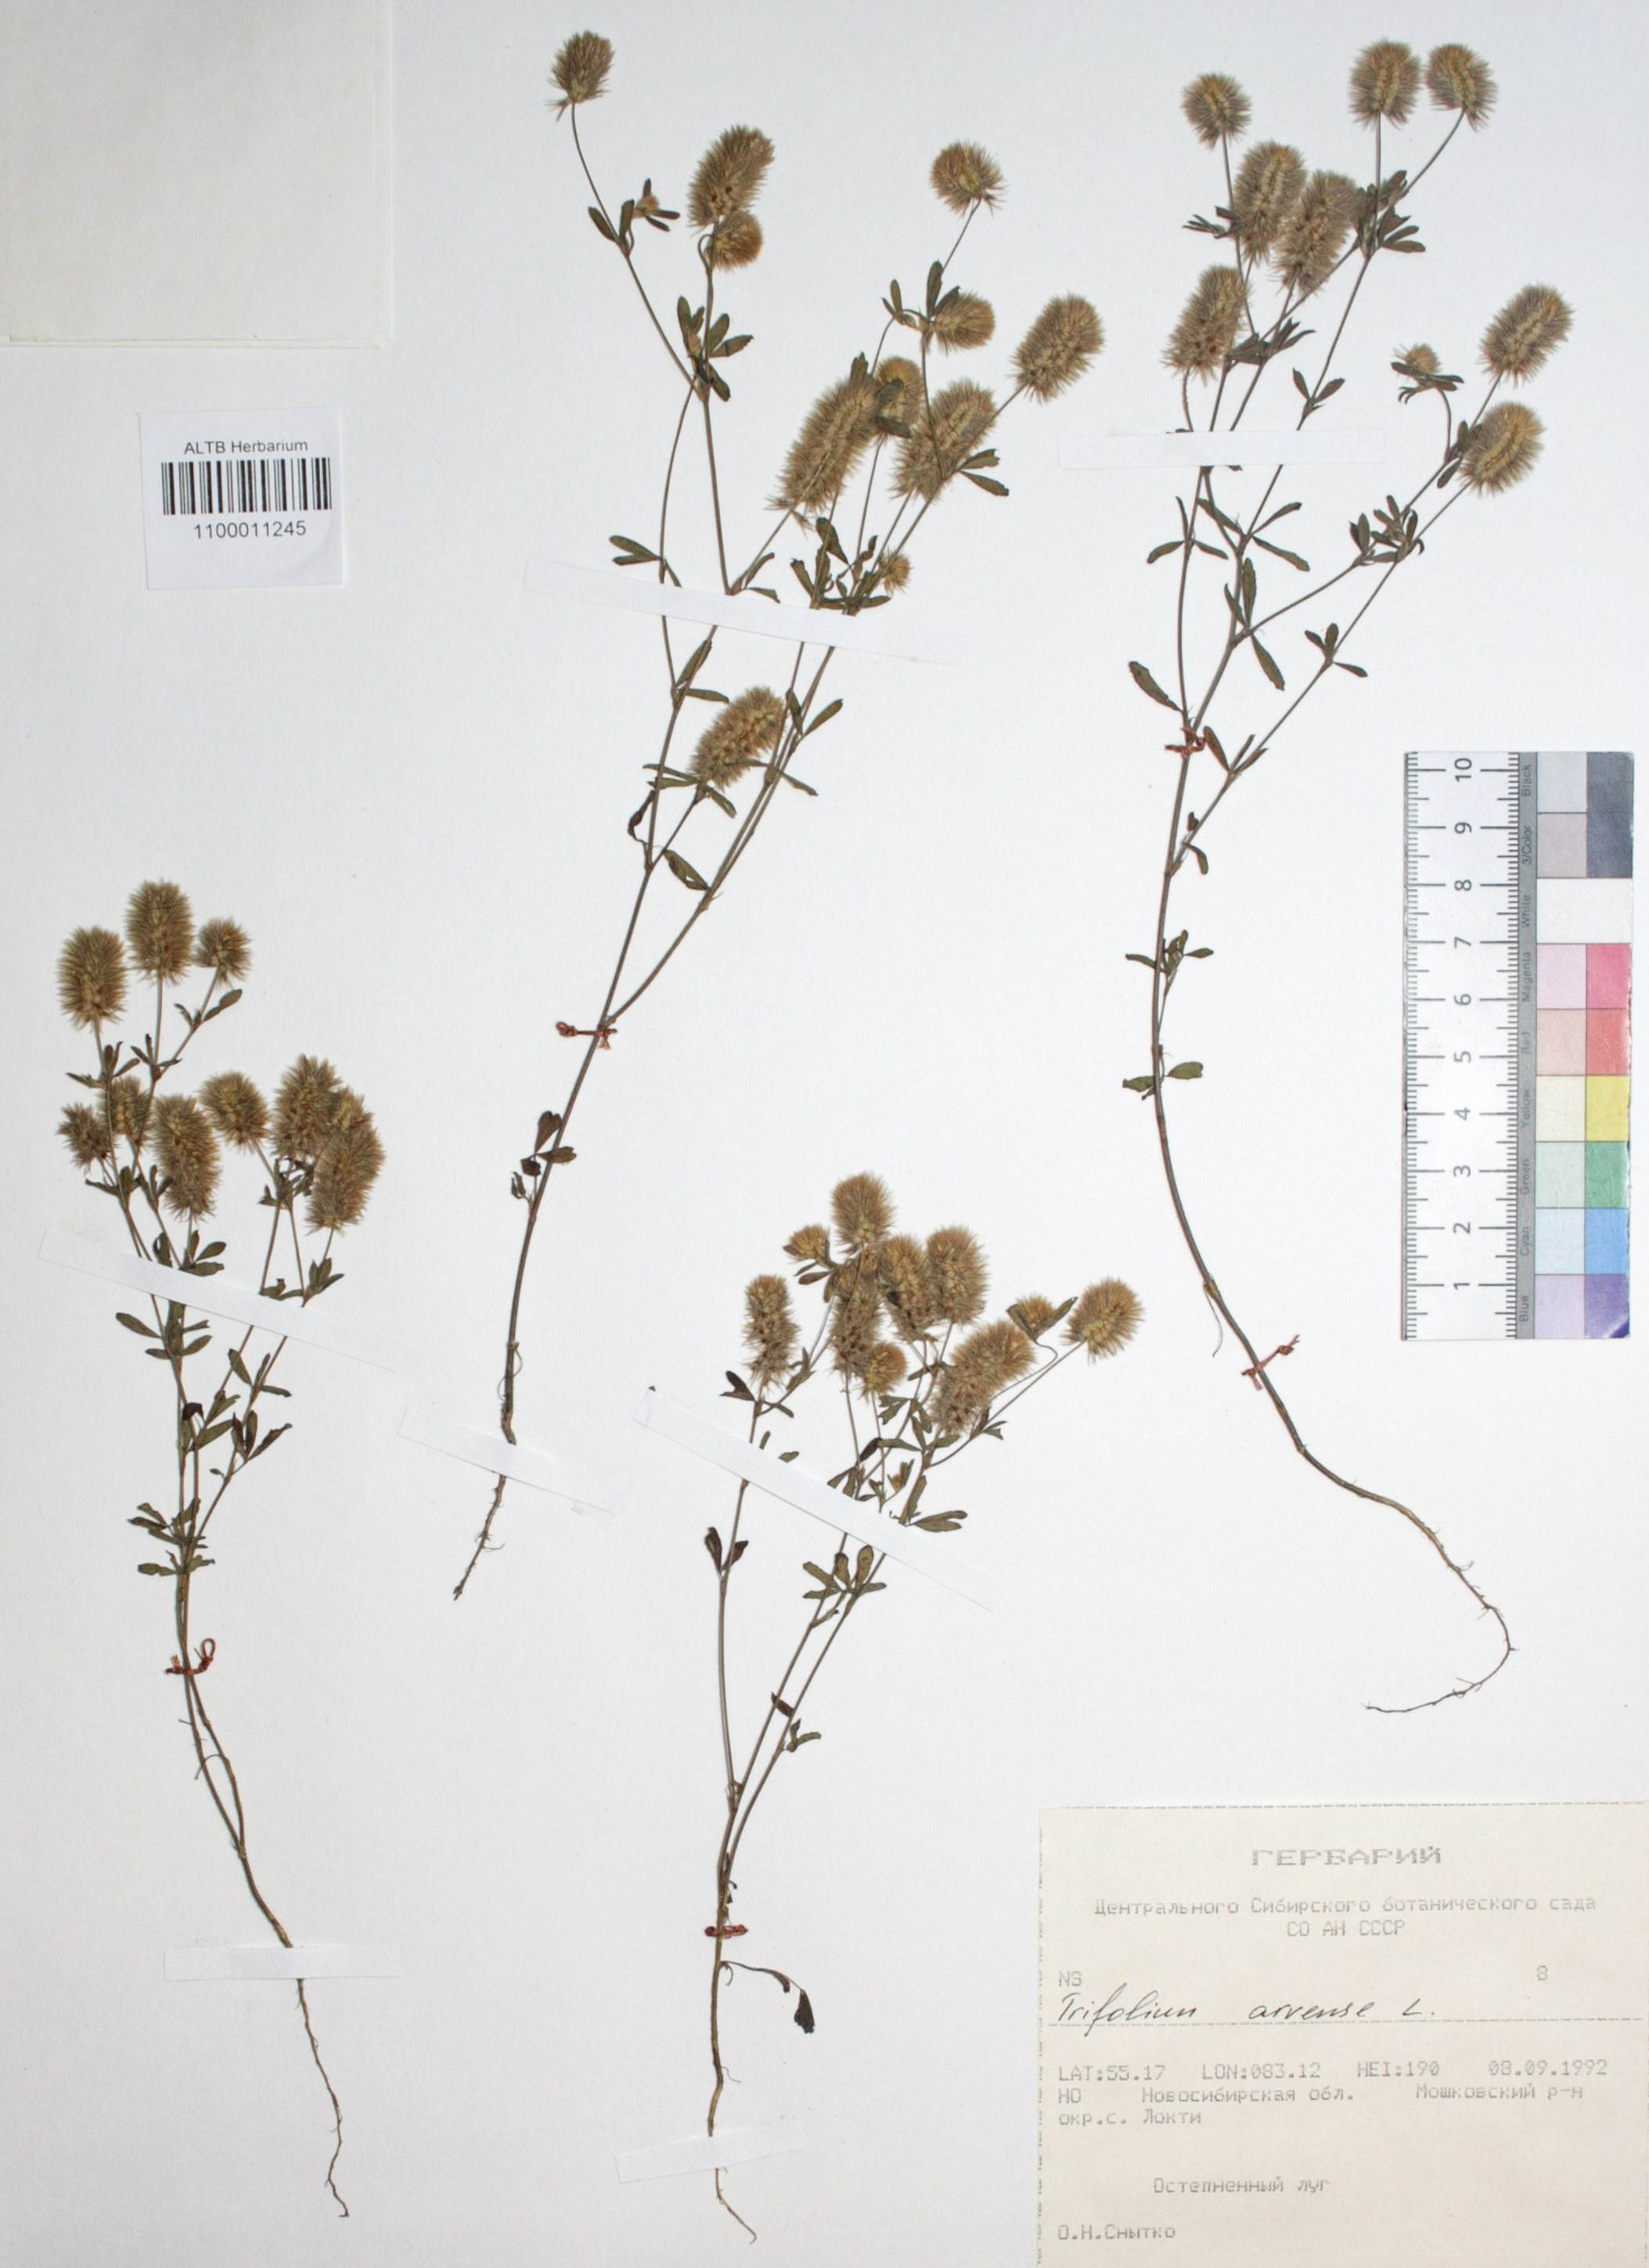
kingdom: Plantae
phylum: Tracheophyta
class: Magnoliopsida
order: Fabales
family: Fabaceae
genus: Trifolium
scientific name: Trifolium arvense
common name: Hare's-foot clover
